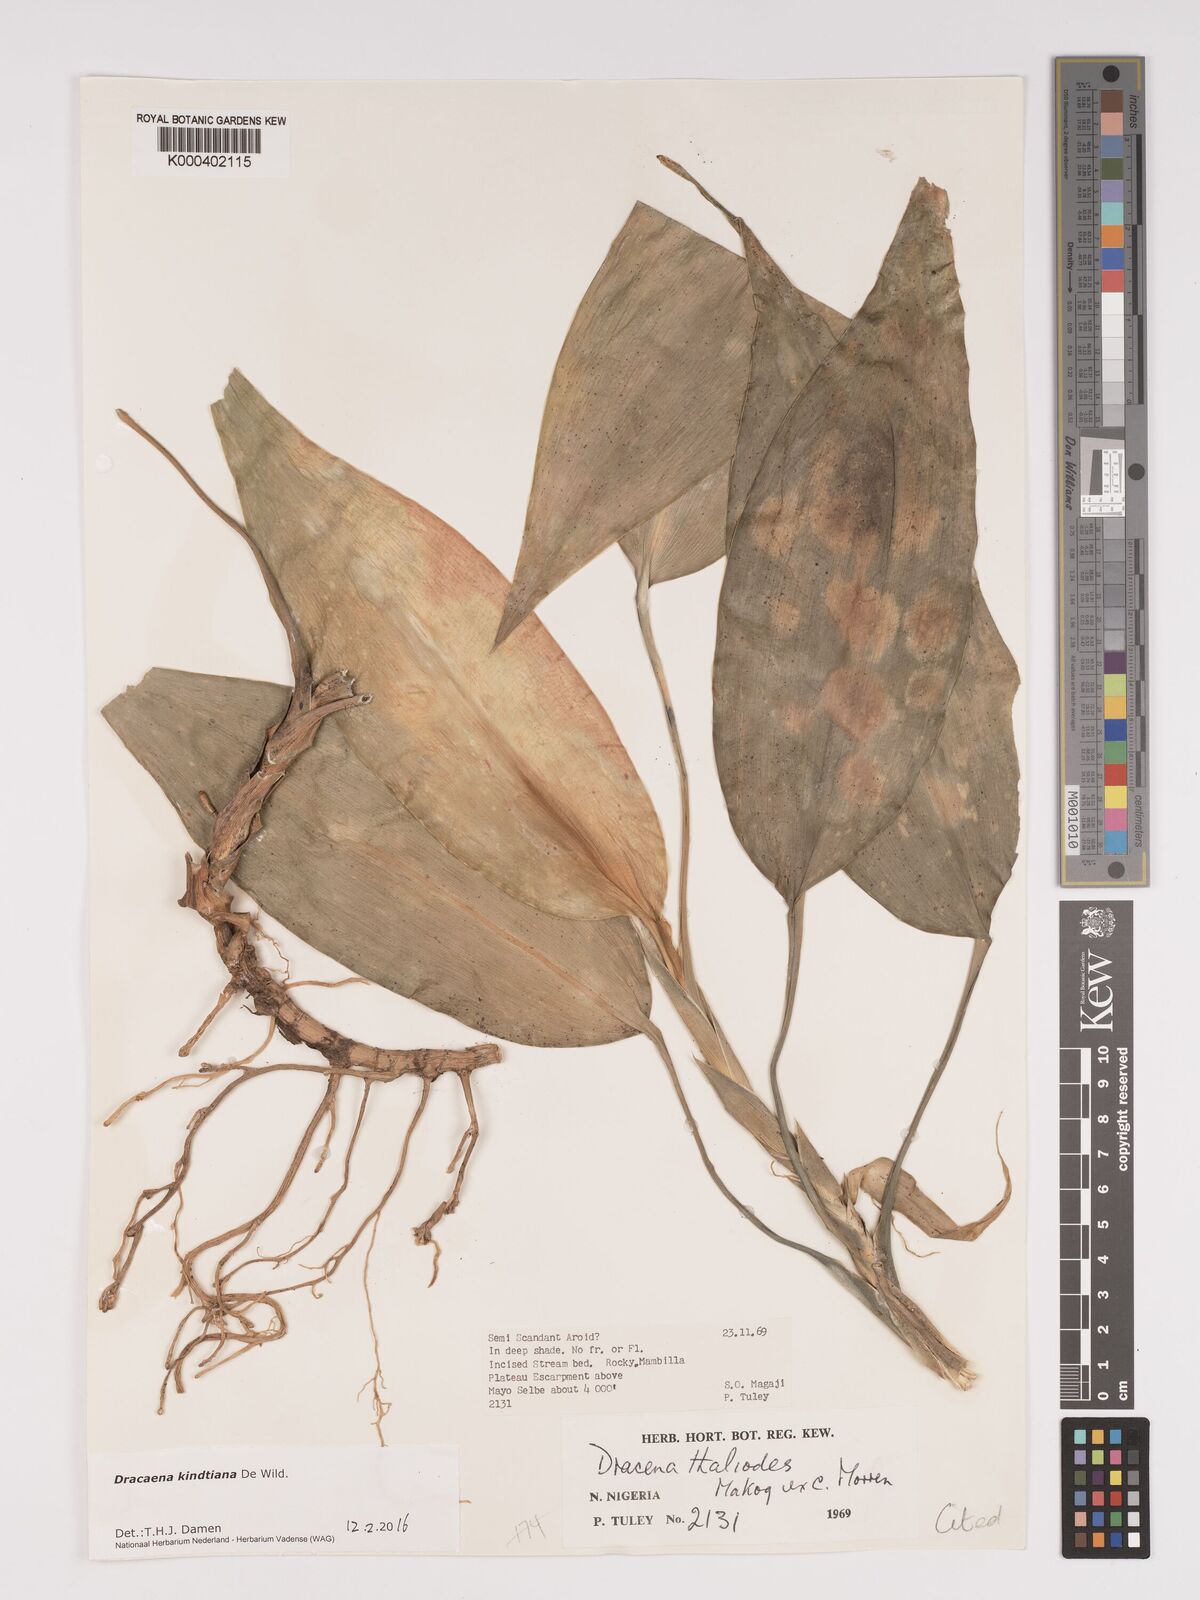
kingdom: Plantae
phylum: Tracheophyta
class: Liliopsida
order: Asparagales
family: Asparagaceae
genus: Dracaena
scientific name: Dracaena kindtiana
